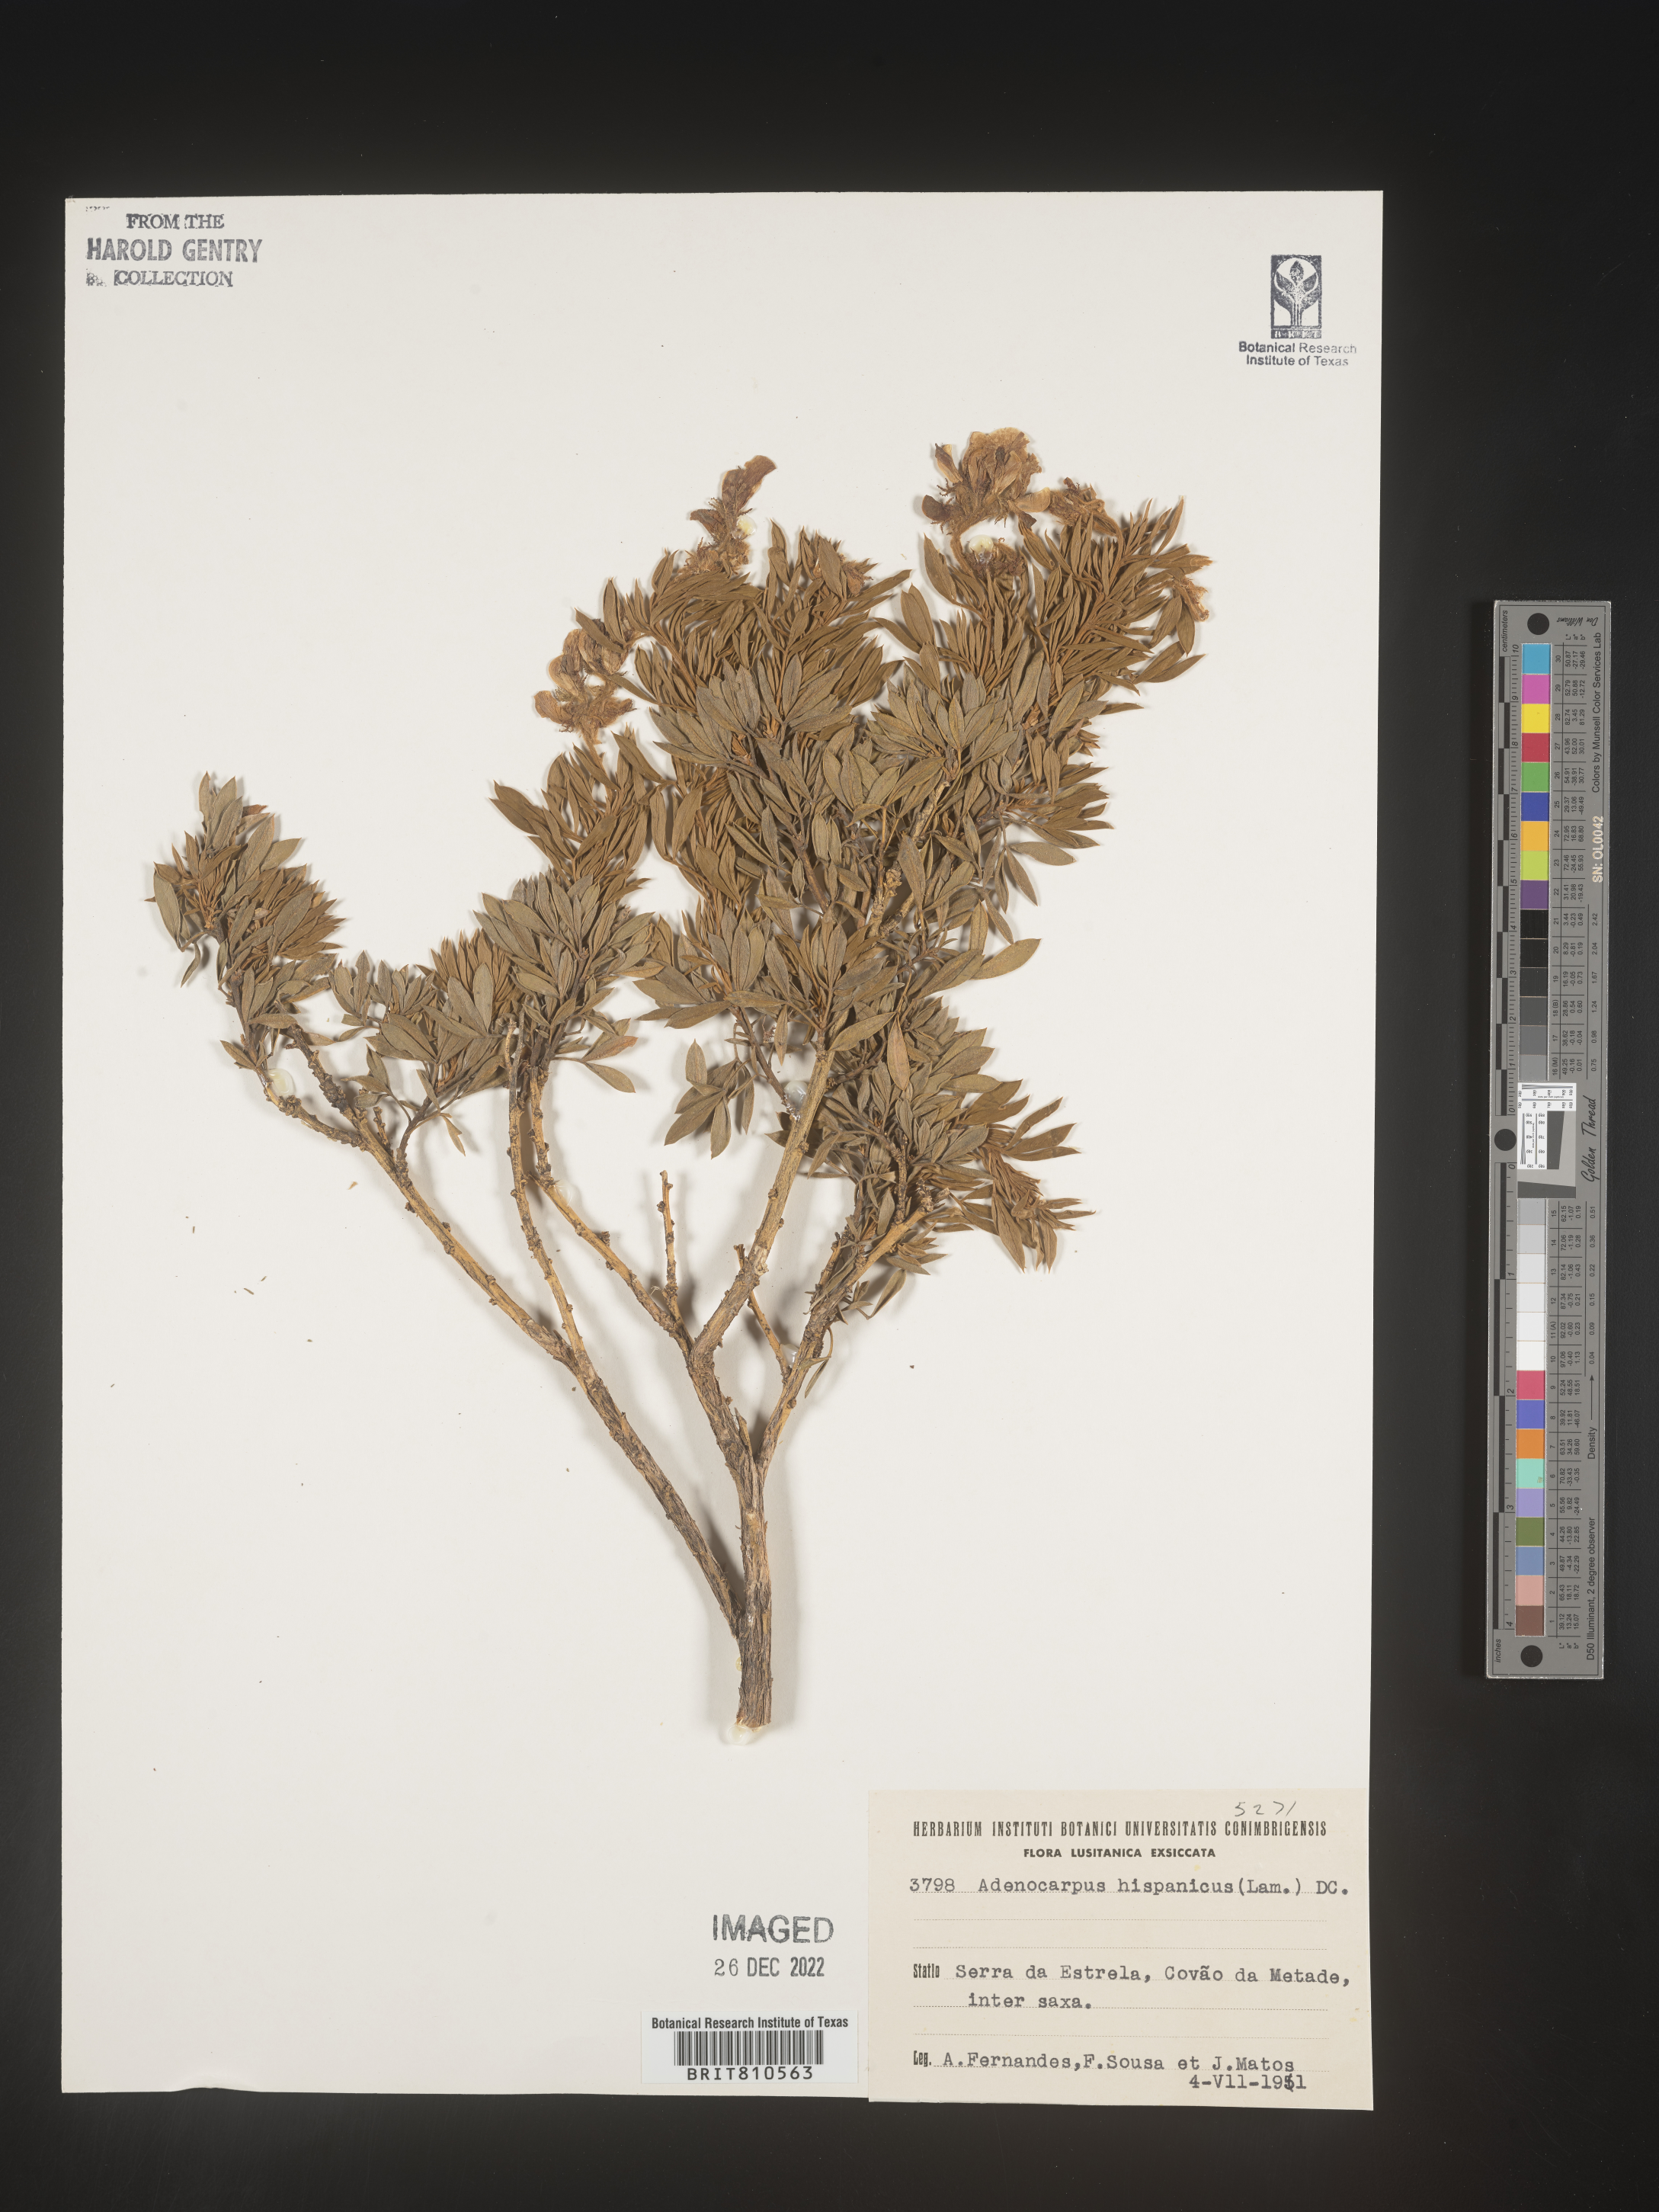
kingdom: Plantae
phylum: Tracheophyta
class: Magnoliopsida
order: Fabales
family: Fabaceae
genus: Adenocarpus
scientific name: Adenocarpus
